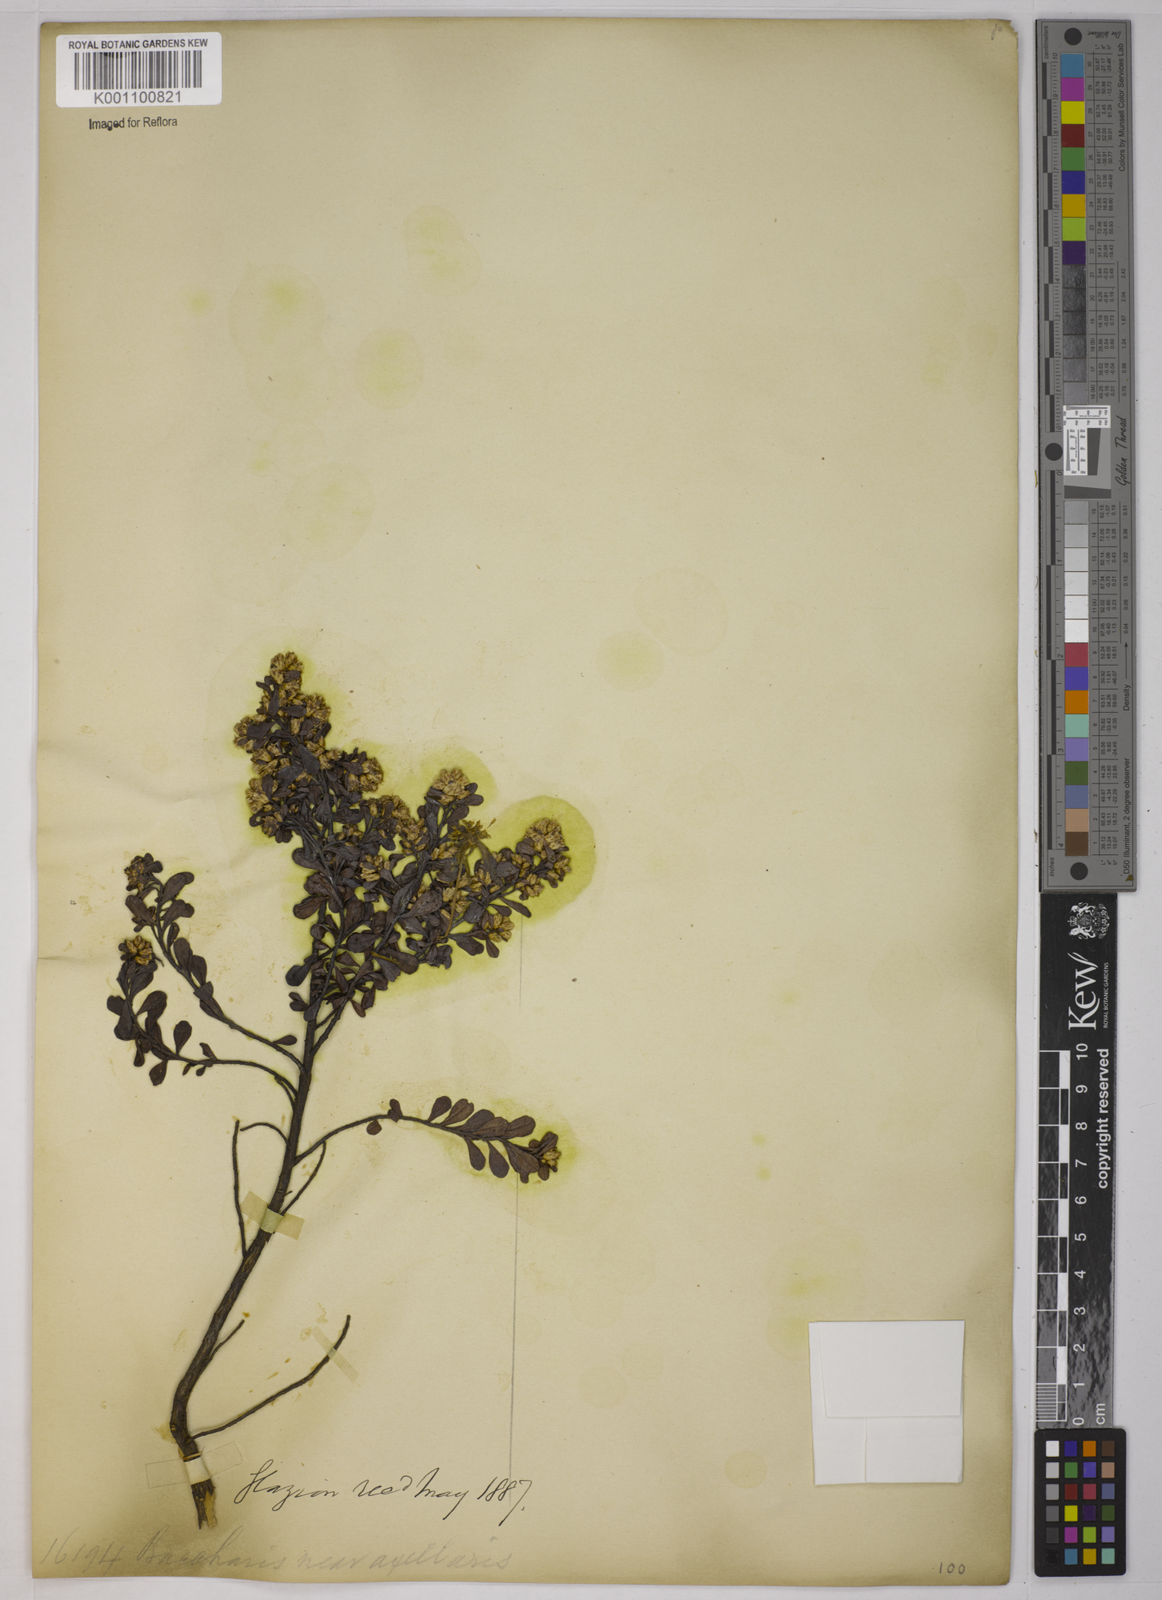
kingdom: Plantae
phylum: Tracheophyta
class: Magnoliopsida
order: Asterales
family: Asteraceae
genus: Baccharis
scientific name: Baccharis axillaris
